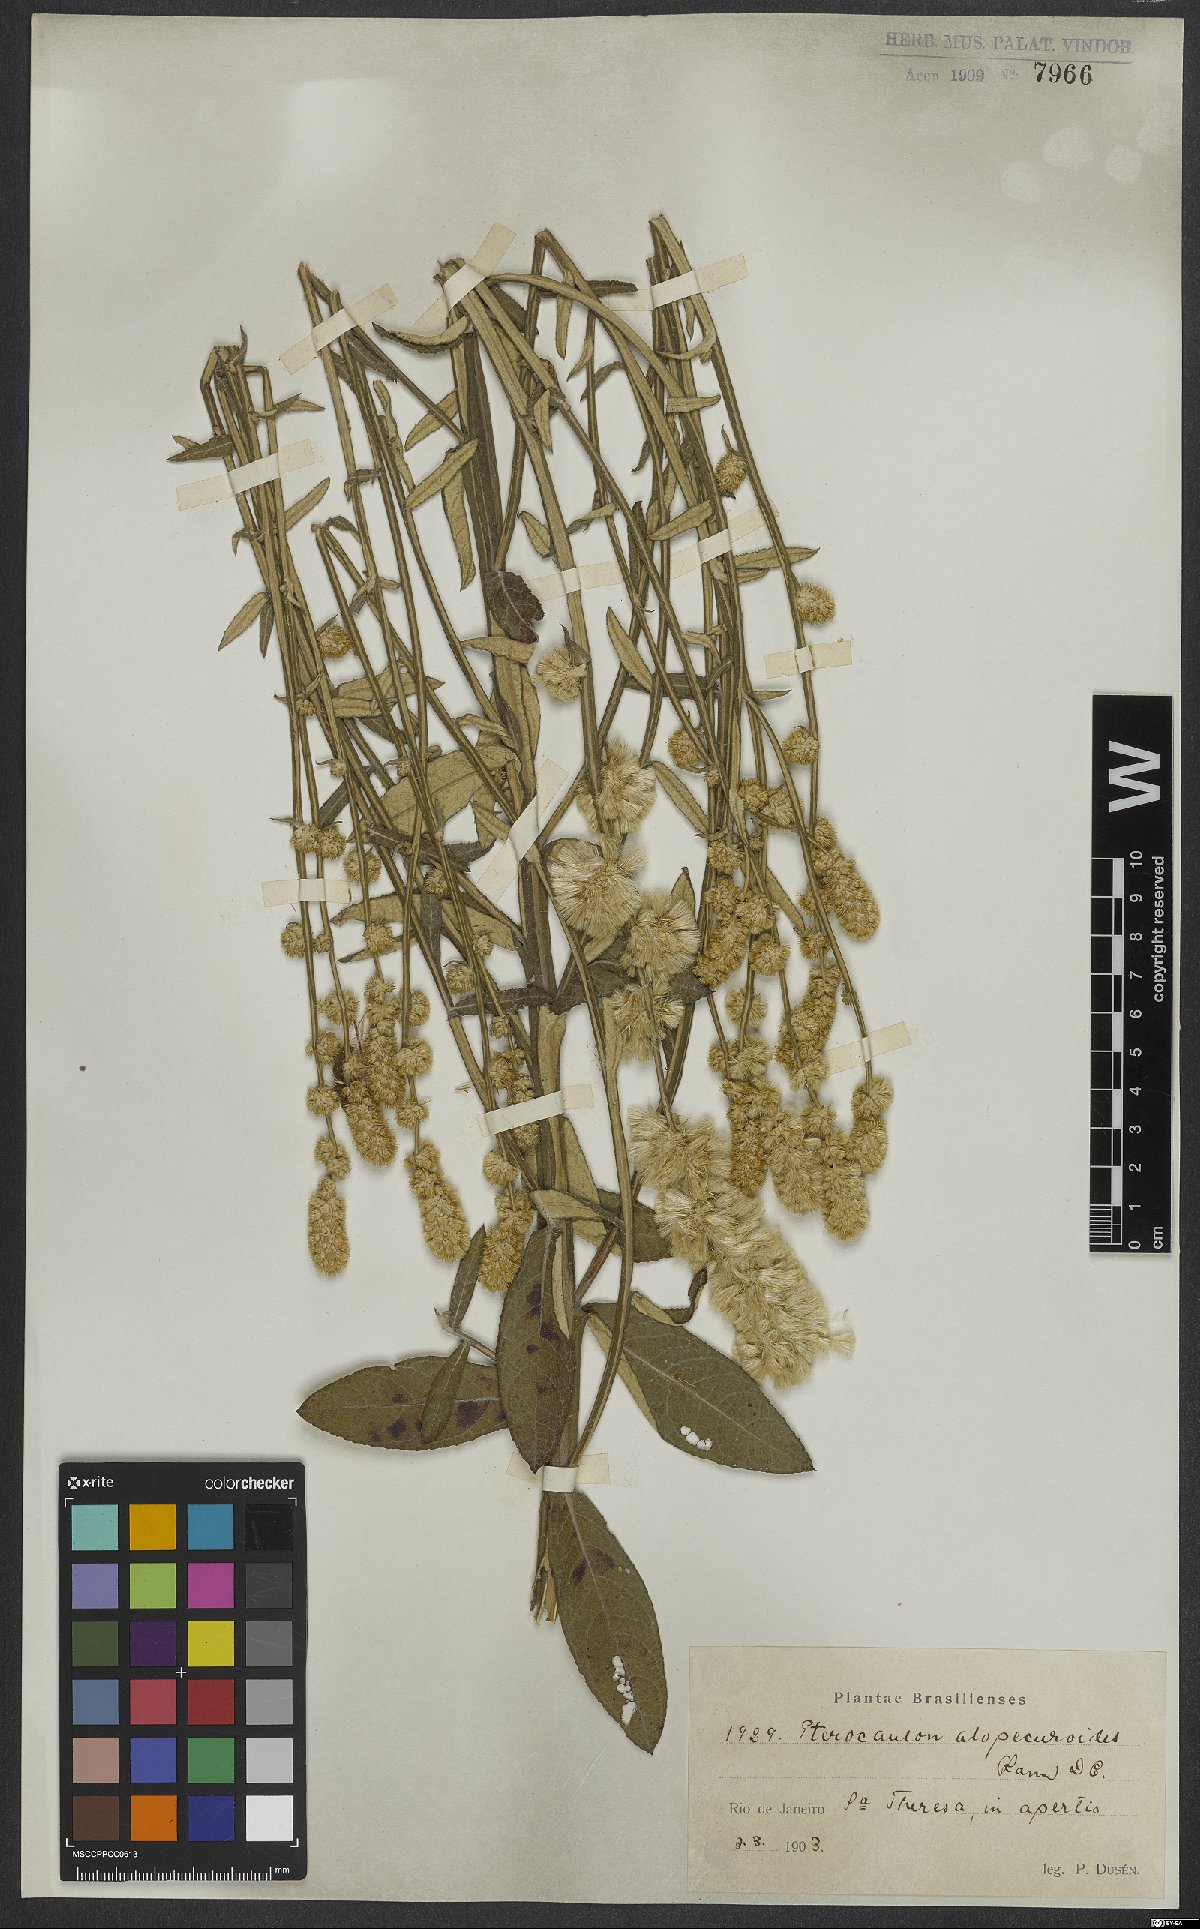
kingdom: Plantae
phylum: Tracheophyta
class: Magnoliopsida
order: Asterales
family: Asteraceae
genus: Pterocaulon
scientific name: Pterocaulon alopecuroides
